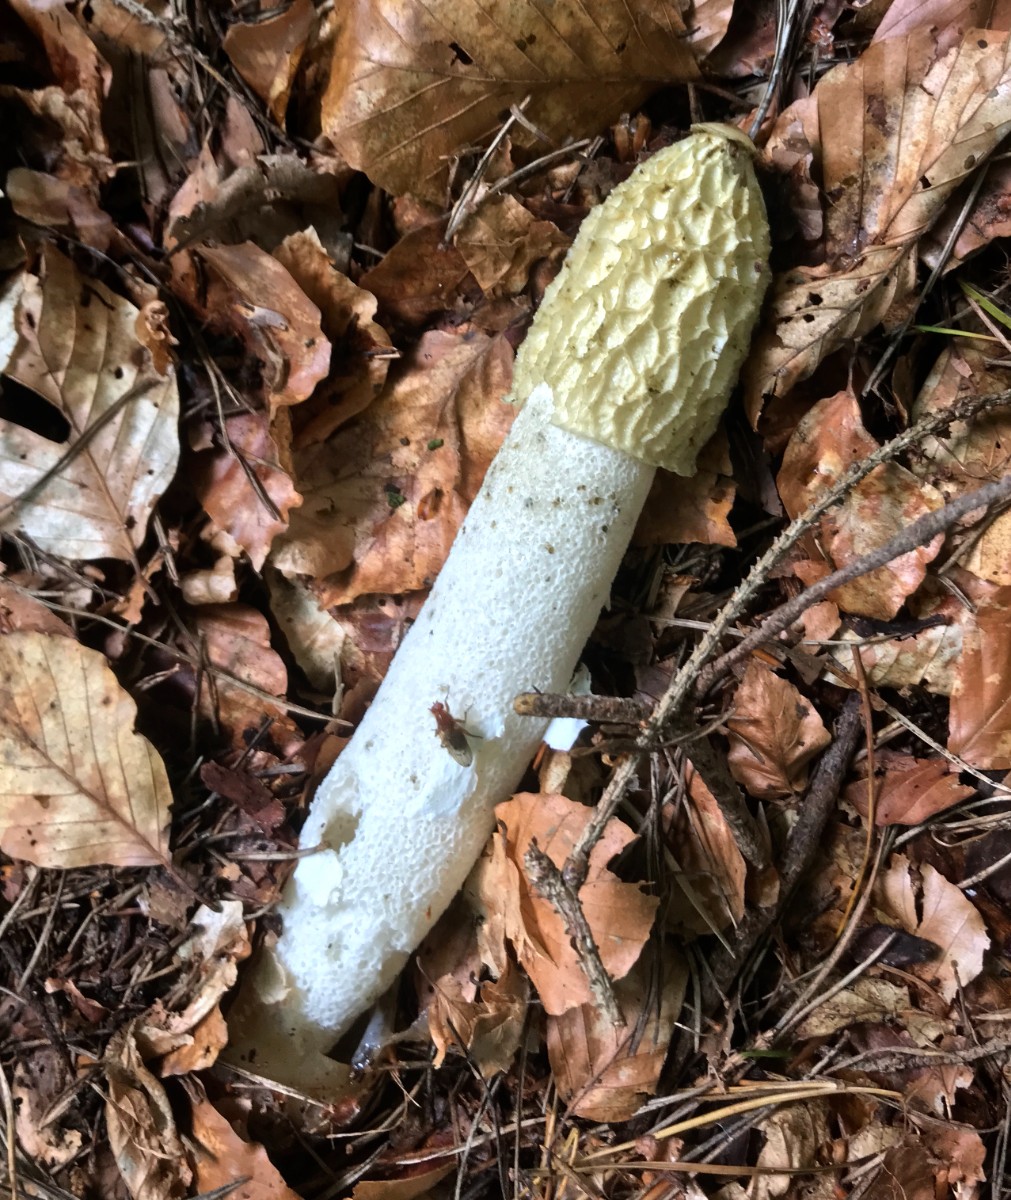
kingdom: Fungi
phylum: Basidiomycota
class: Agaricomycetes
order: Phallales
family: Phallaceae
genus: Phallus
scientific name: Phallus impudicus
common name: almindelig stinksvamp
